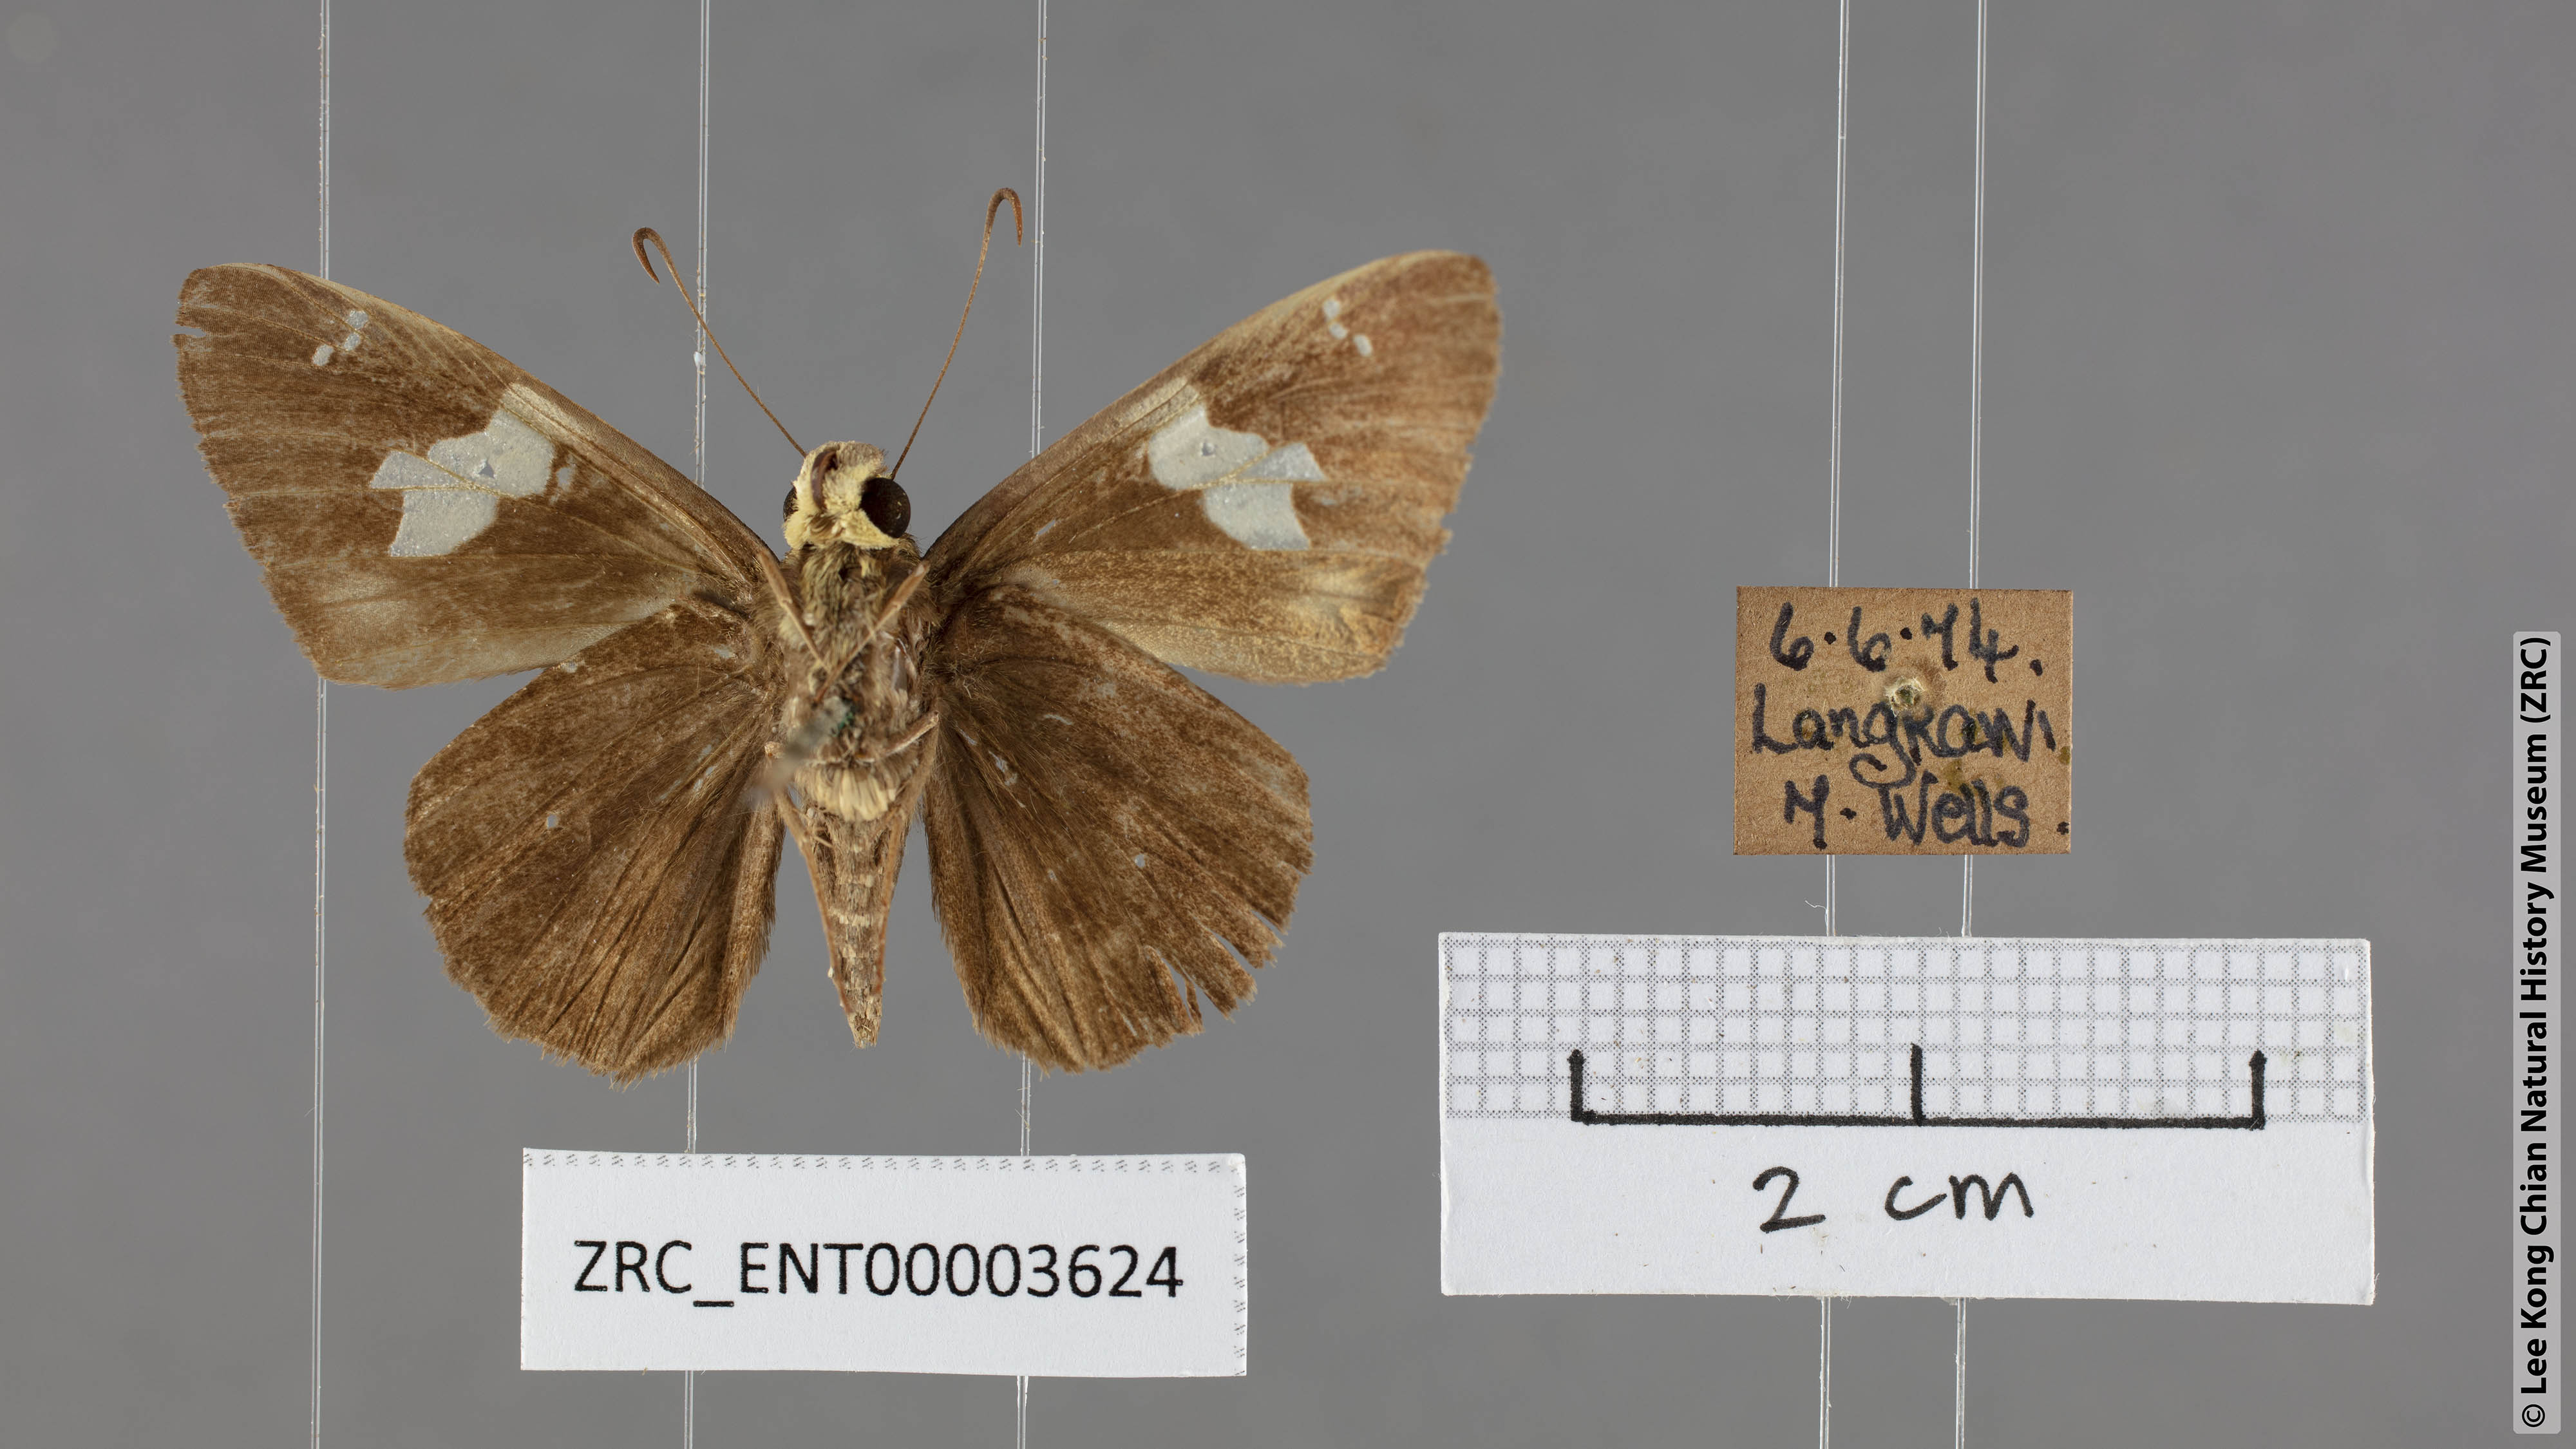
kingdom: Animalia
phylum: Arthropoda
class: Insecta
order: Lepidoptera
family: Hesperiidae
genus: Celaenorrhinus
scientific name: Celaenorrhinus asmara
